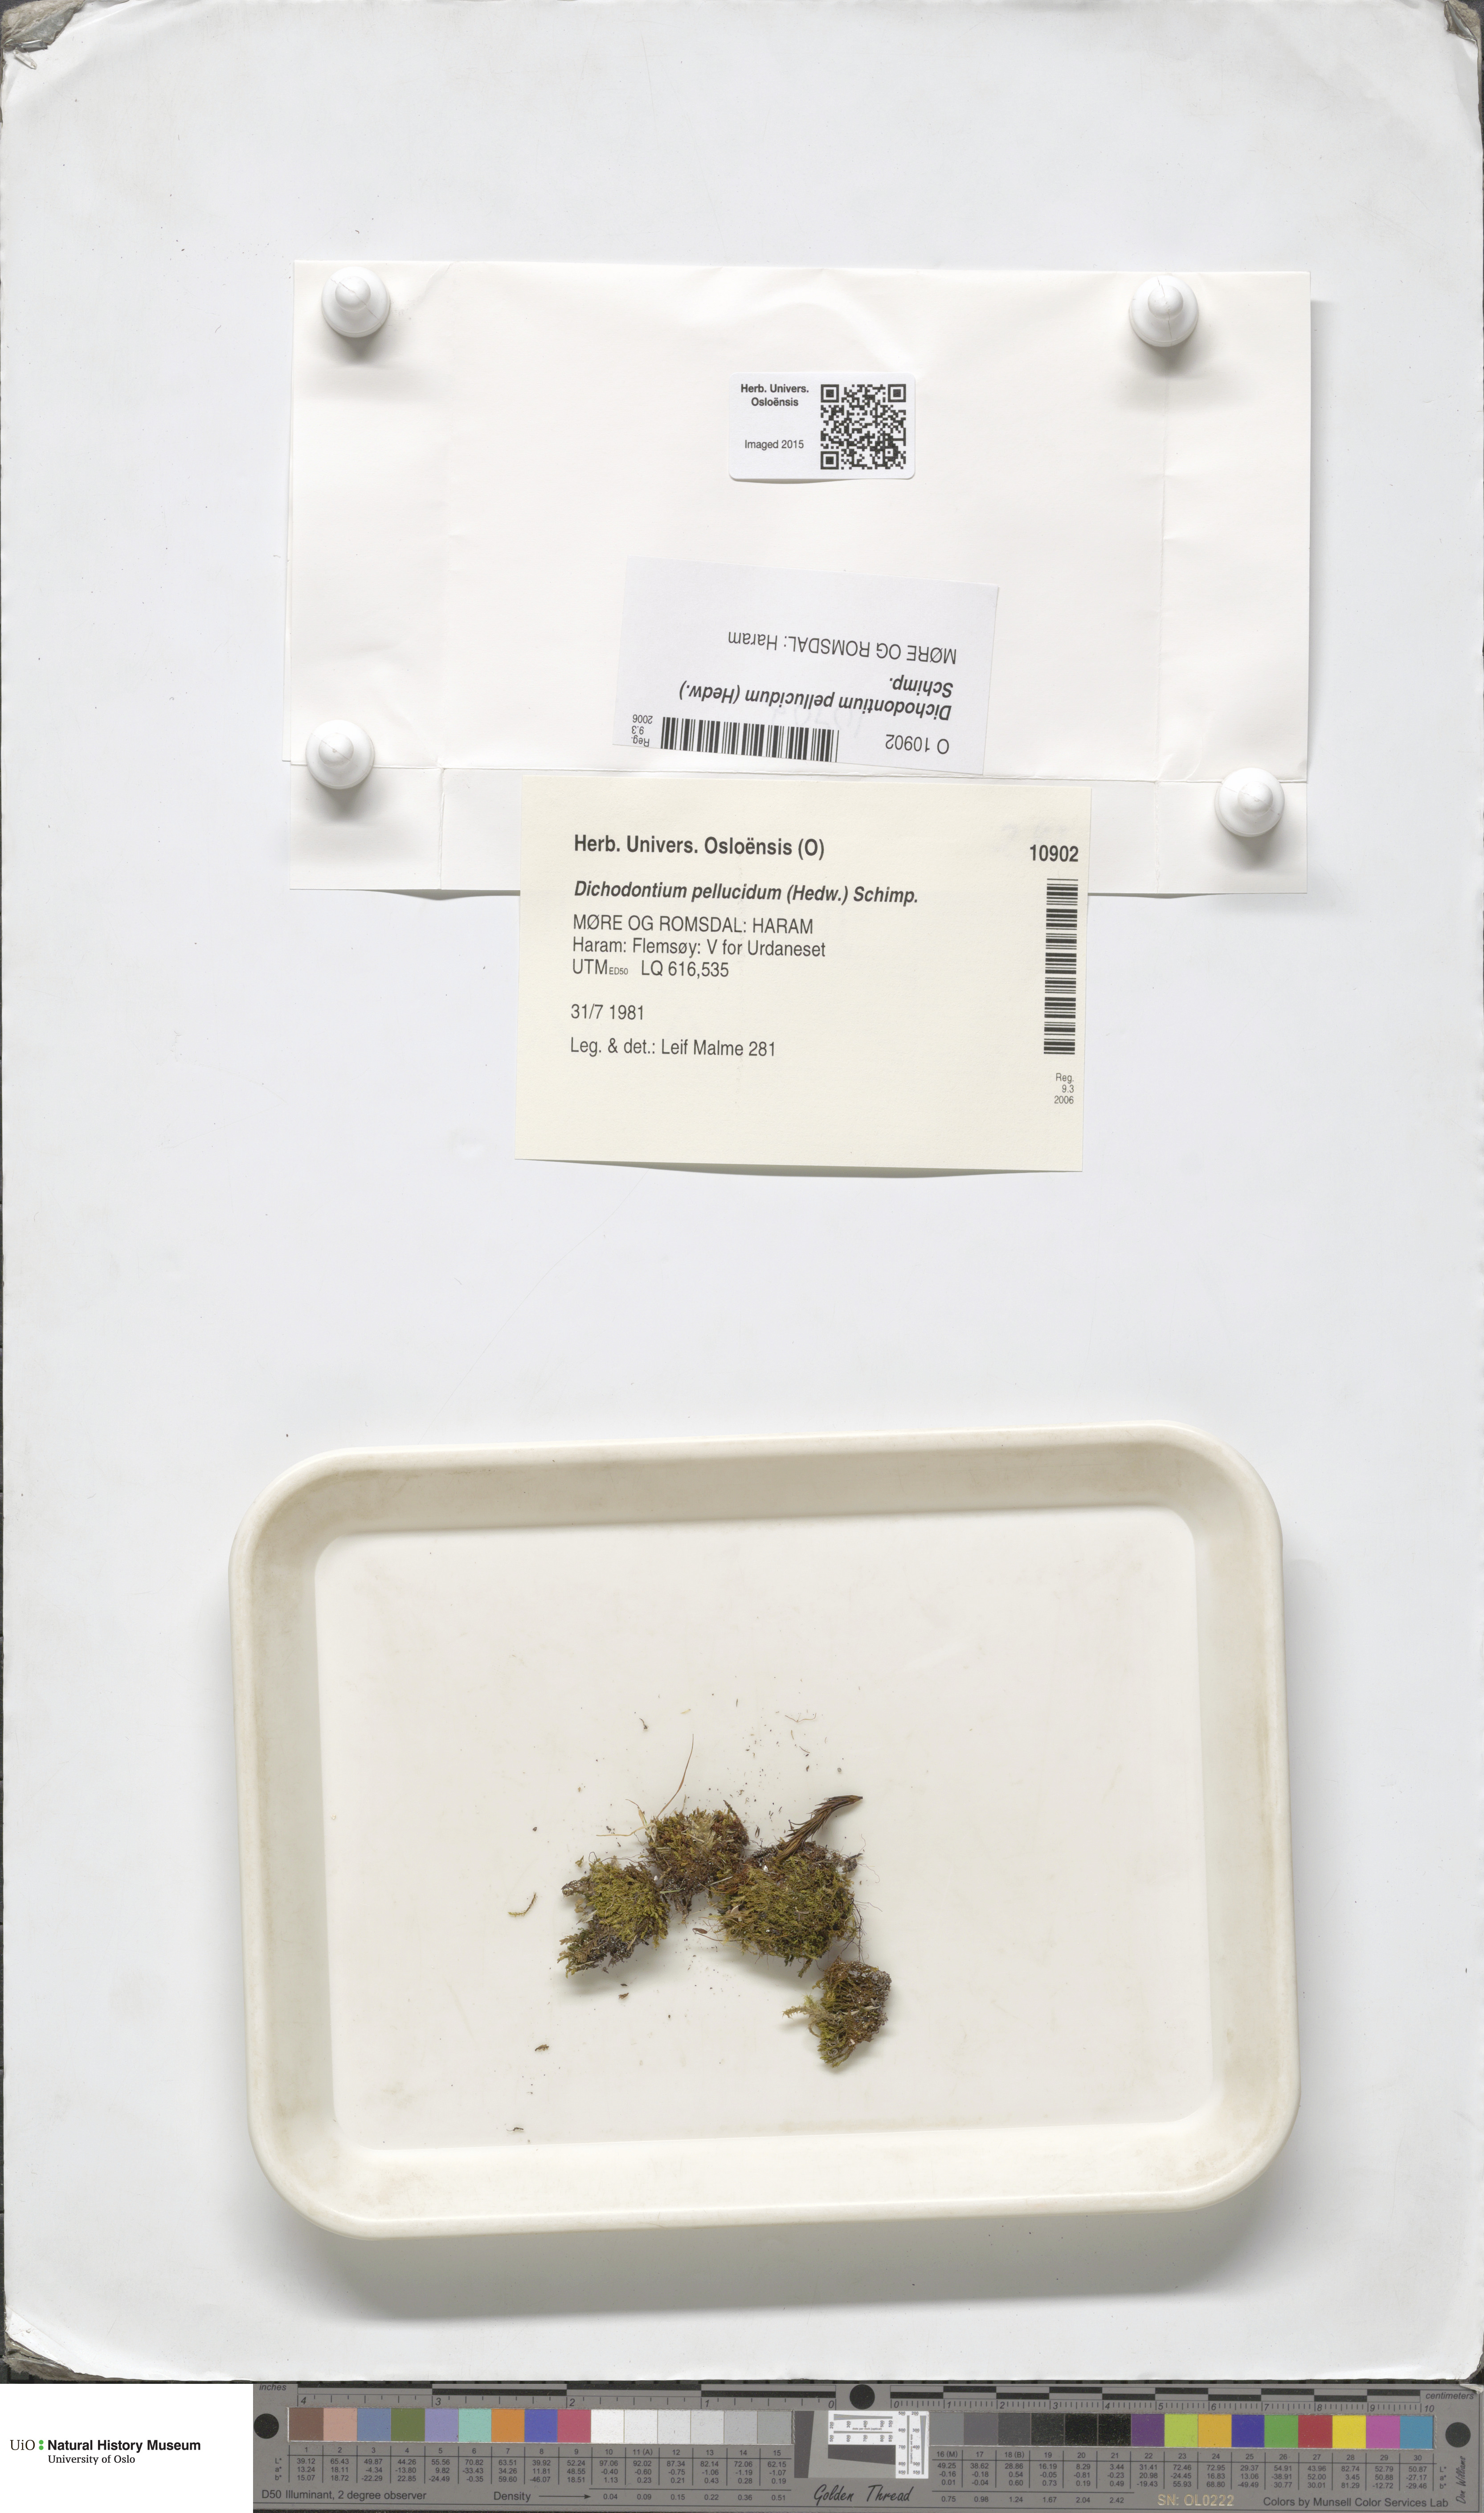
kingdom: Plantae
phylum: Bryophyta
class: Bryopsida
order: Dicranales
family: Aongstroemiaceae
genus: Dichodontium
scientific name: Dichodontium pellucidum
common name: Transparent fork moss
